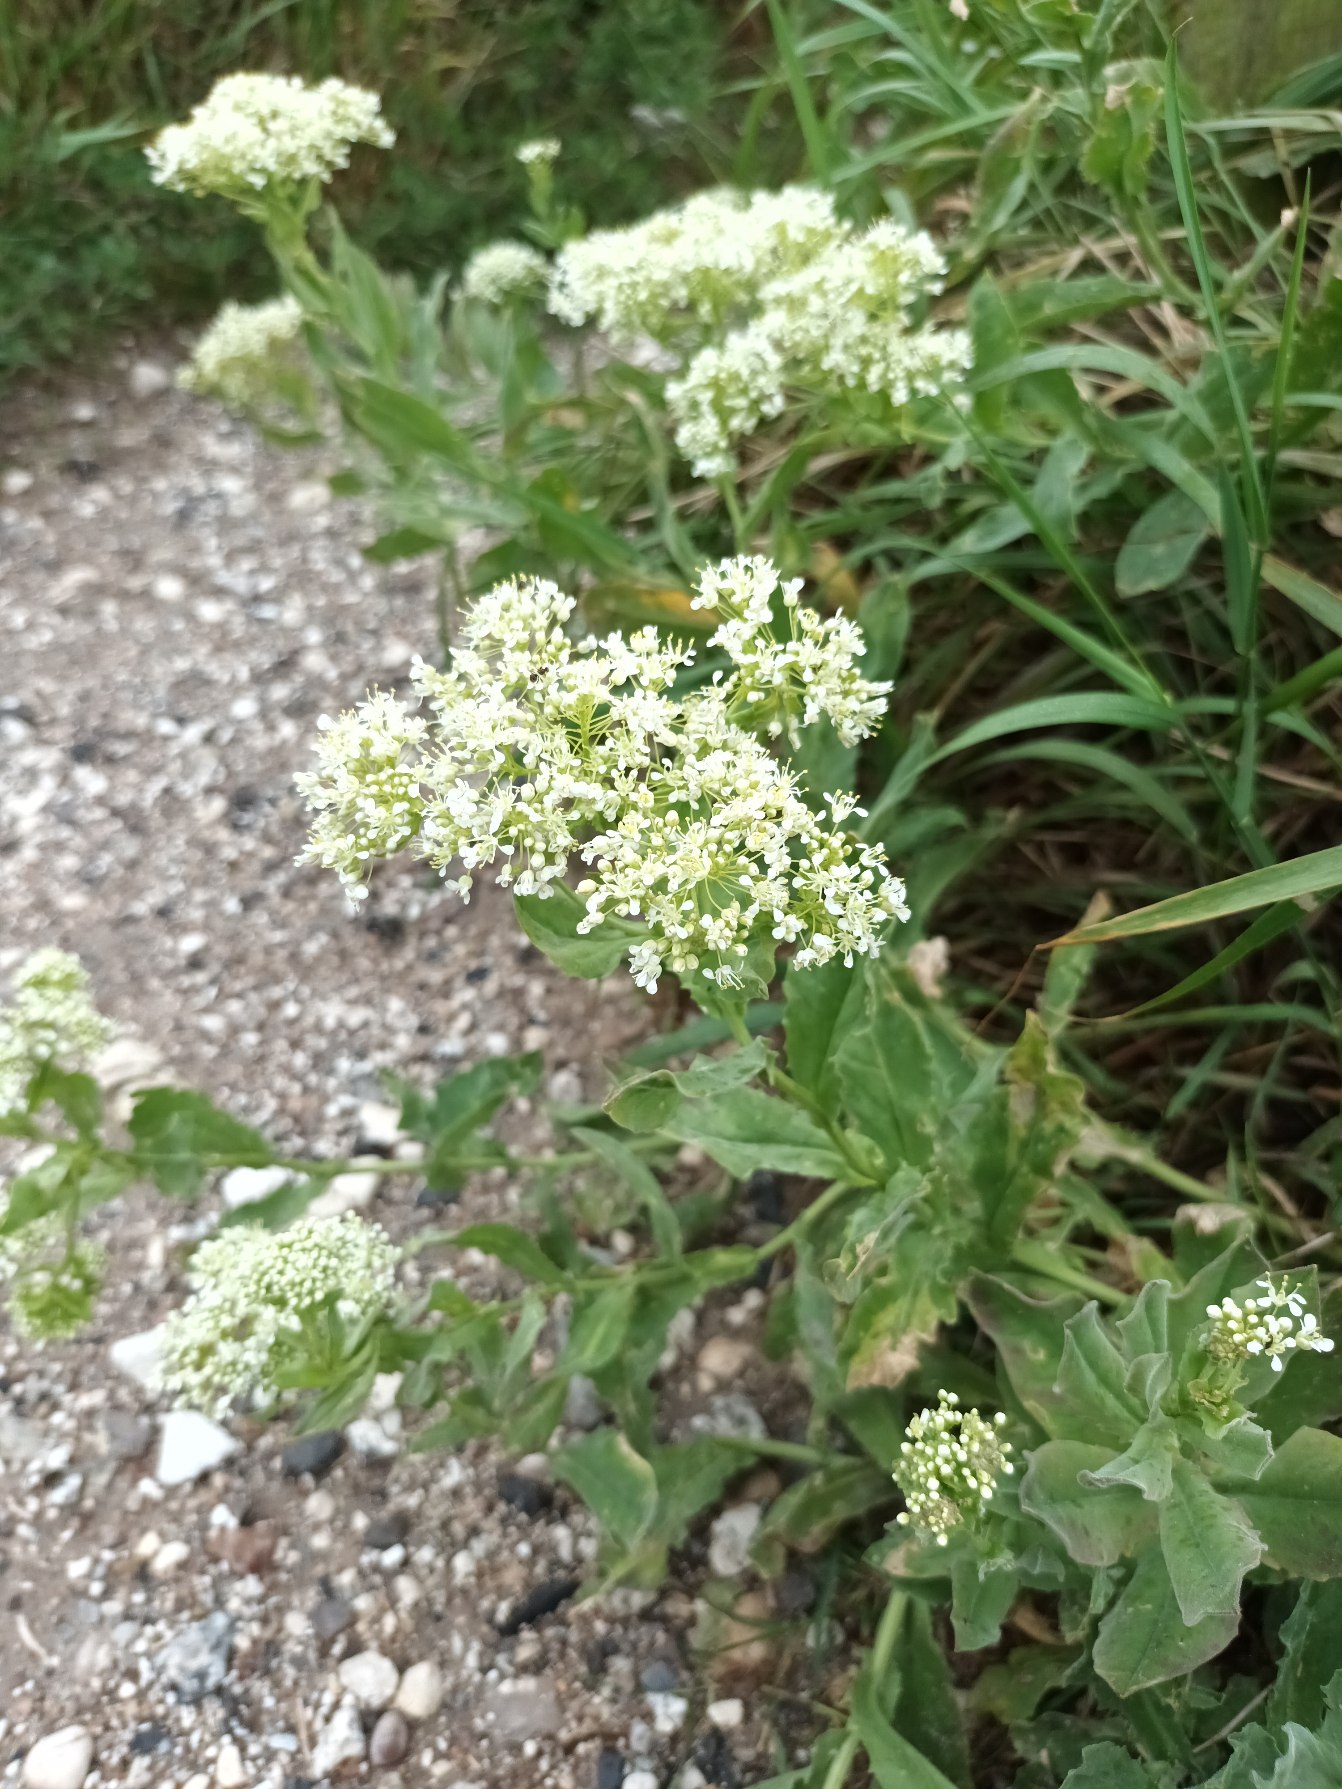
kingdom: Plantae
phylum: Tracheophyta
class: Magnoliopsida
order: Brassicales
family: Brassicaceae
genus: Lepidium
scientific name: Lepidium draba
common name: Hjerte-karse
